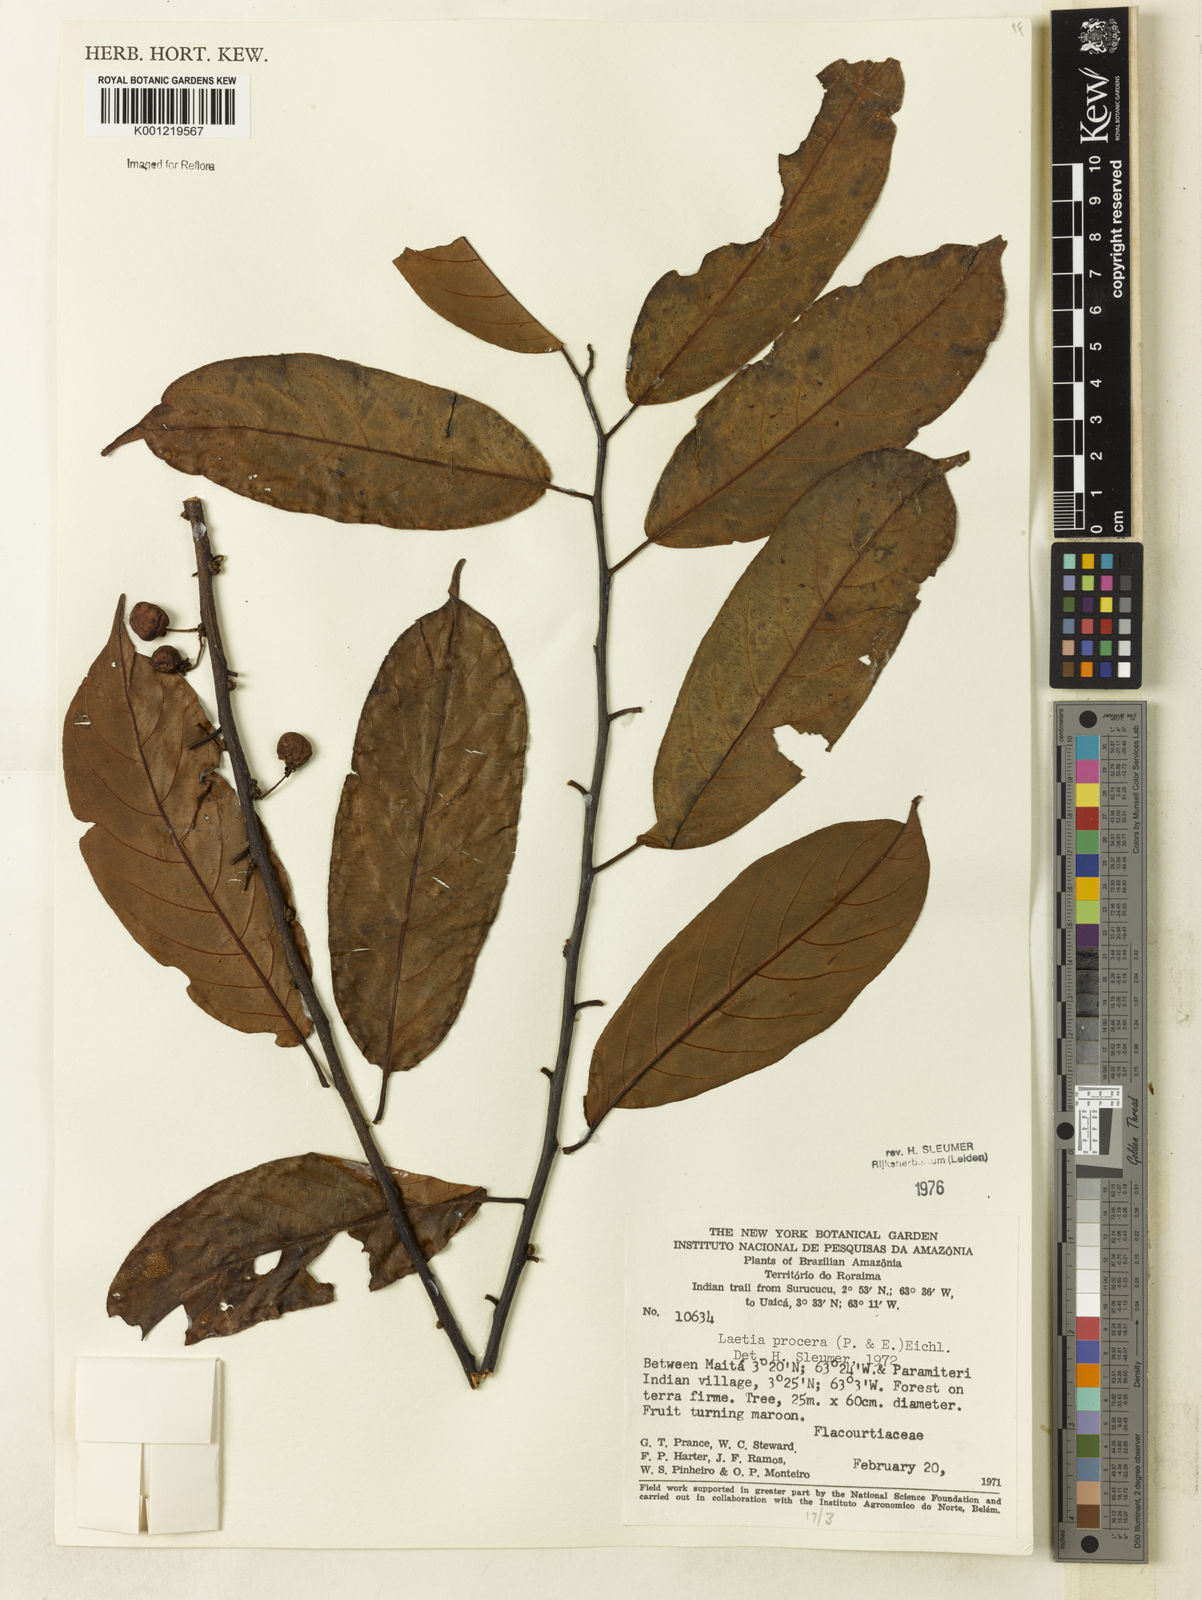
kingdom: Plantae
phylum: Tracheophyta
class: Magnoliopsida
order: Malpighiales
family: Salicaceae
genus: Casearia
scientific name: Casearia bicolor
